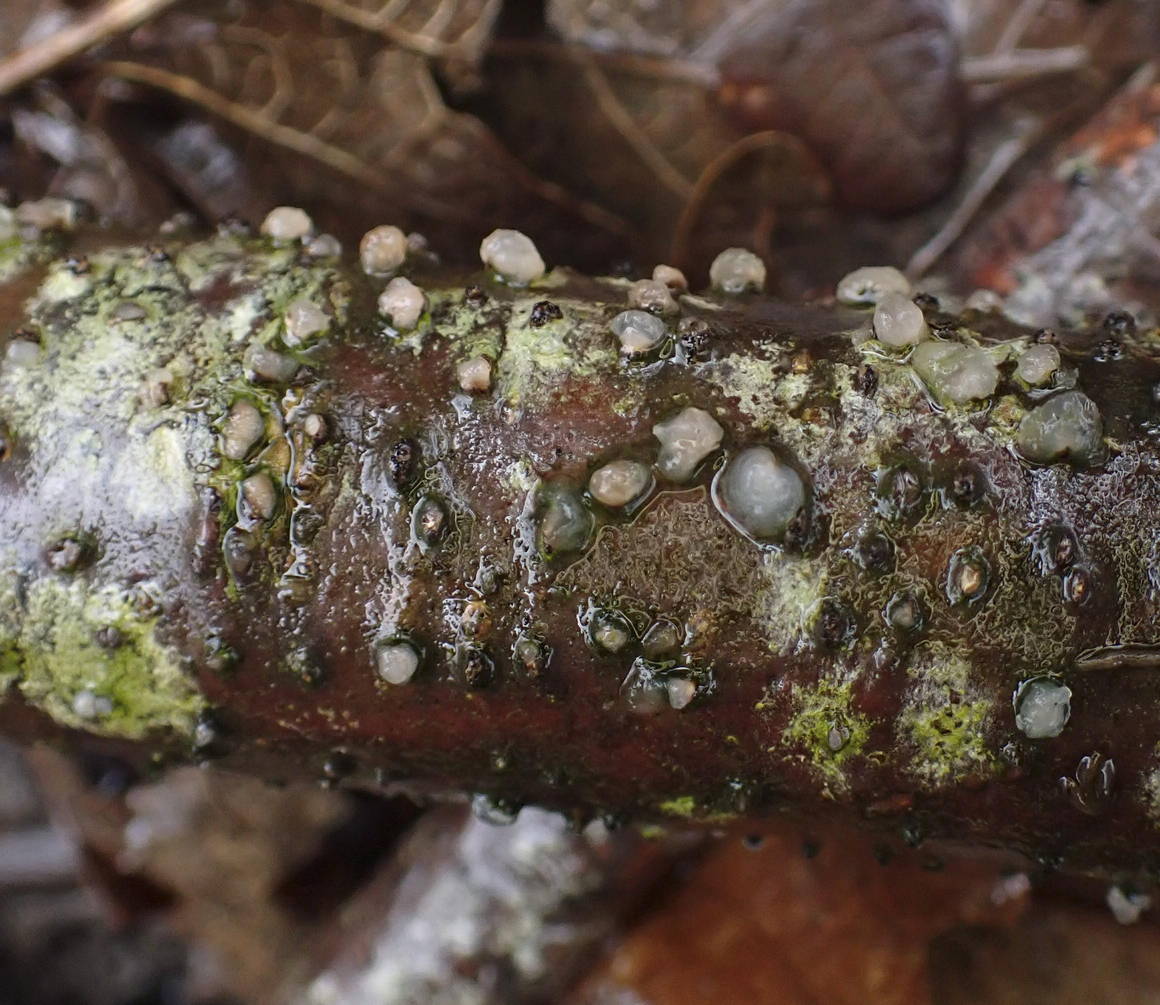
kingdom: Fungi
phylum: Basidiomycota
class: Tremellomycetes
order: Tremellales
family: Tremellaceae
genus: Tremella
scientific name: Tremella globispora
